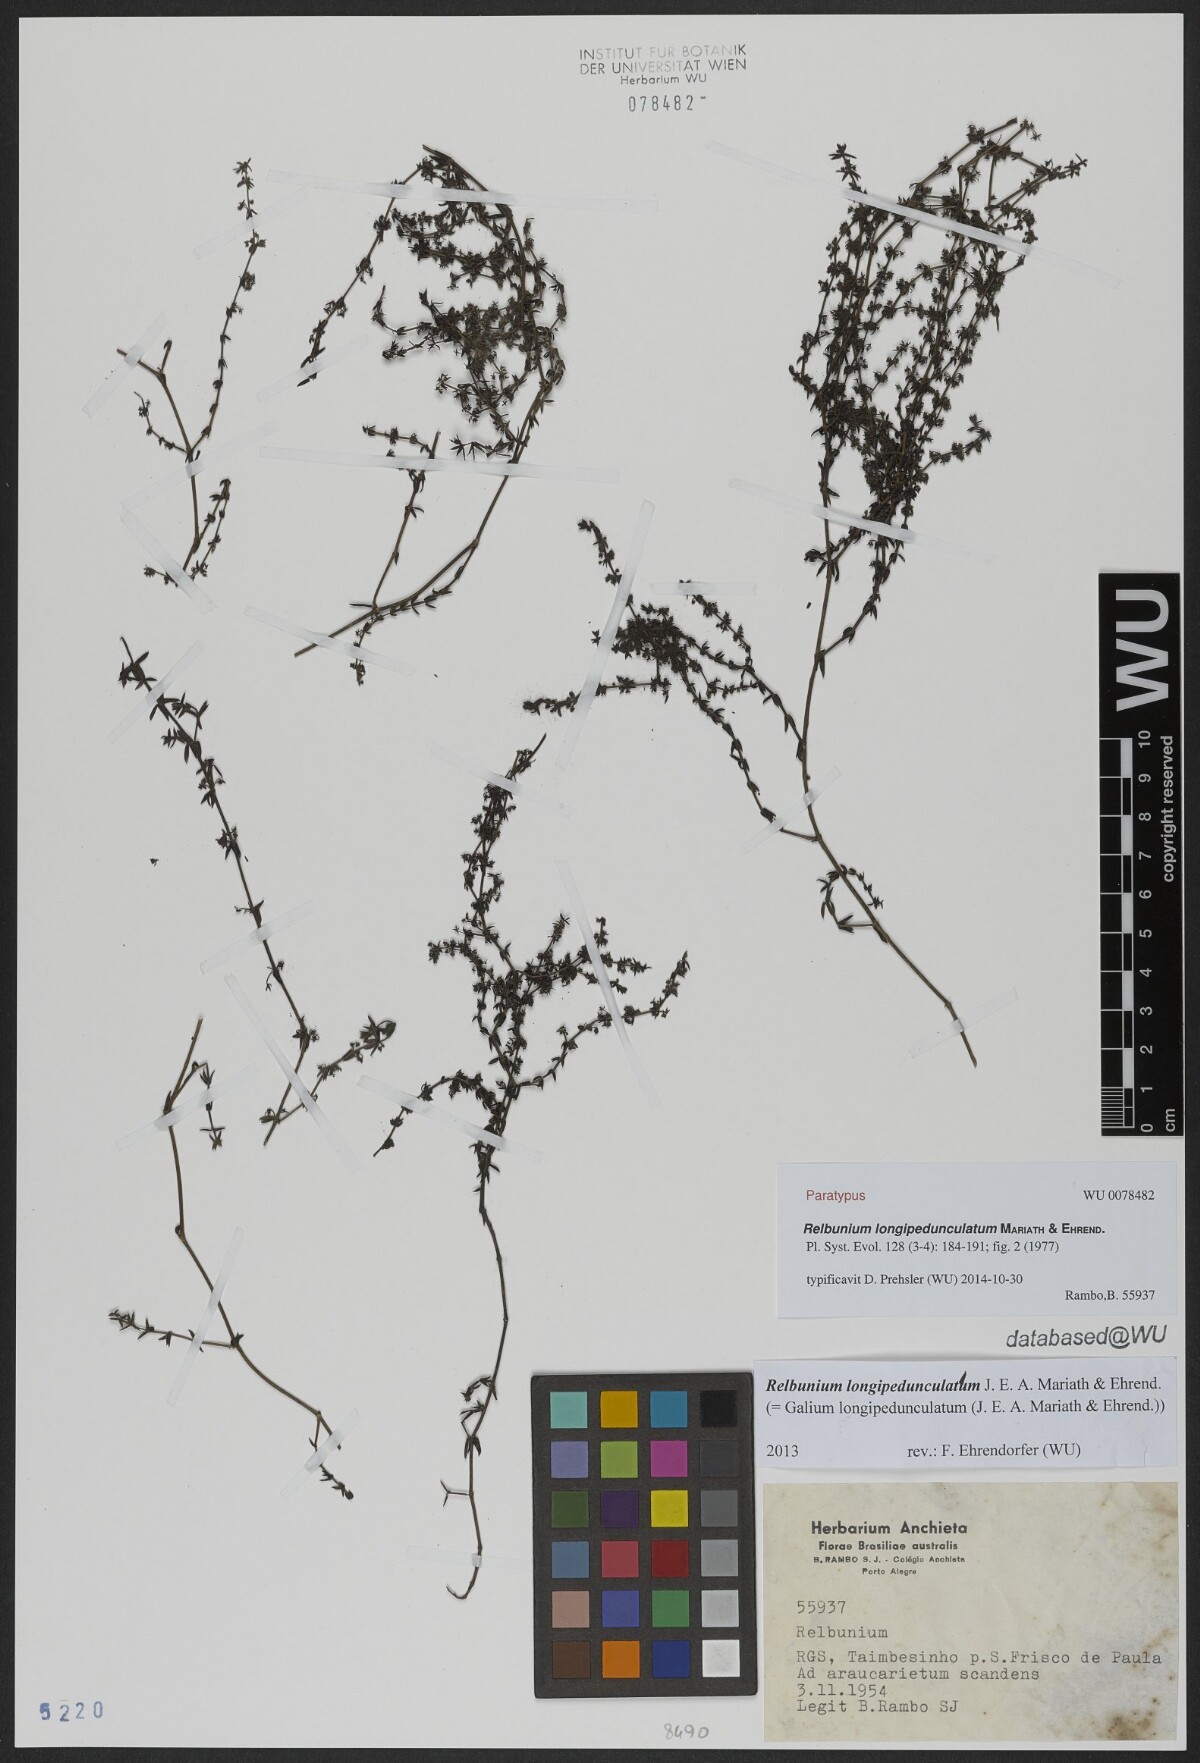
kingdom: Plantae
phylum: Tracheophyta
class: Magnoliopsida
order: Gentianales
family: Rubiaceae
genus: Galium
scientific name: Galium longipedunculatum
